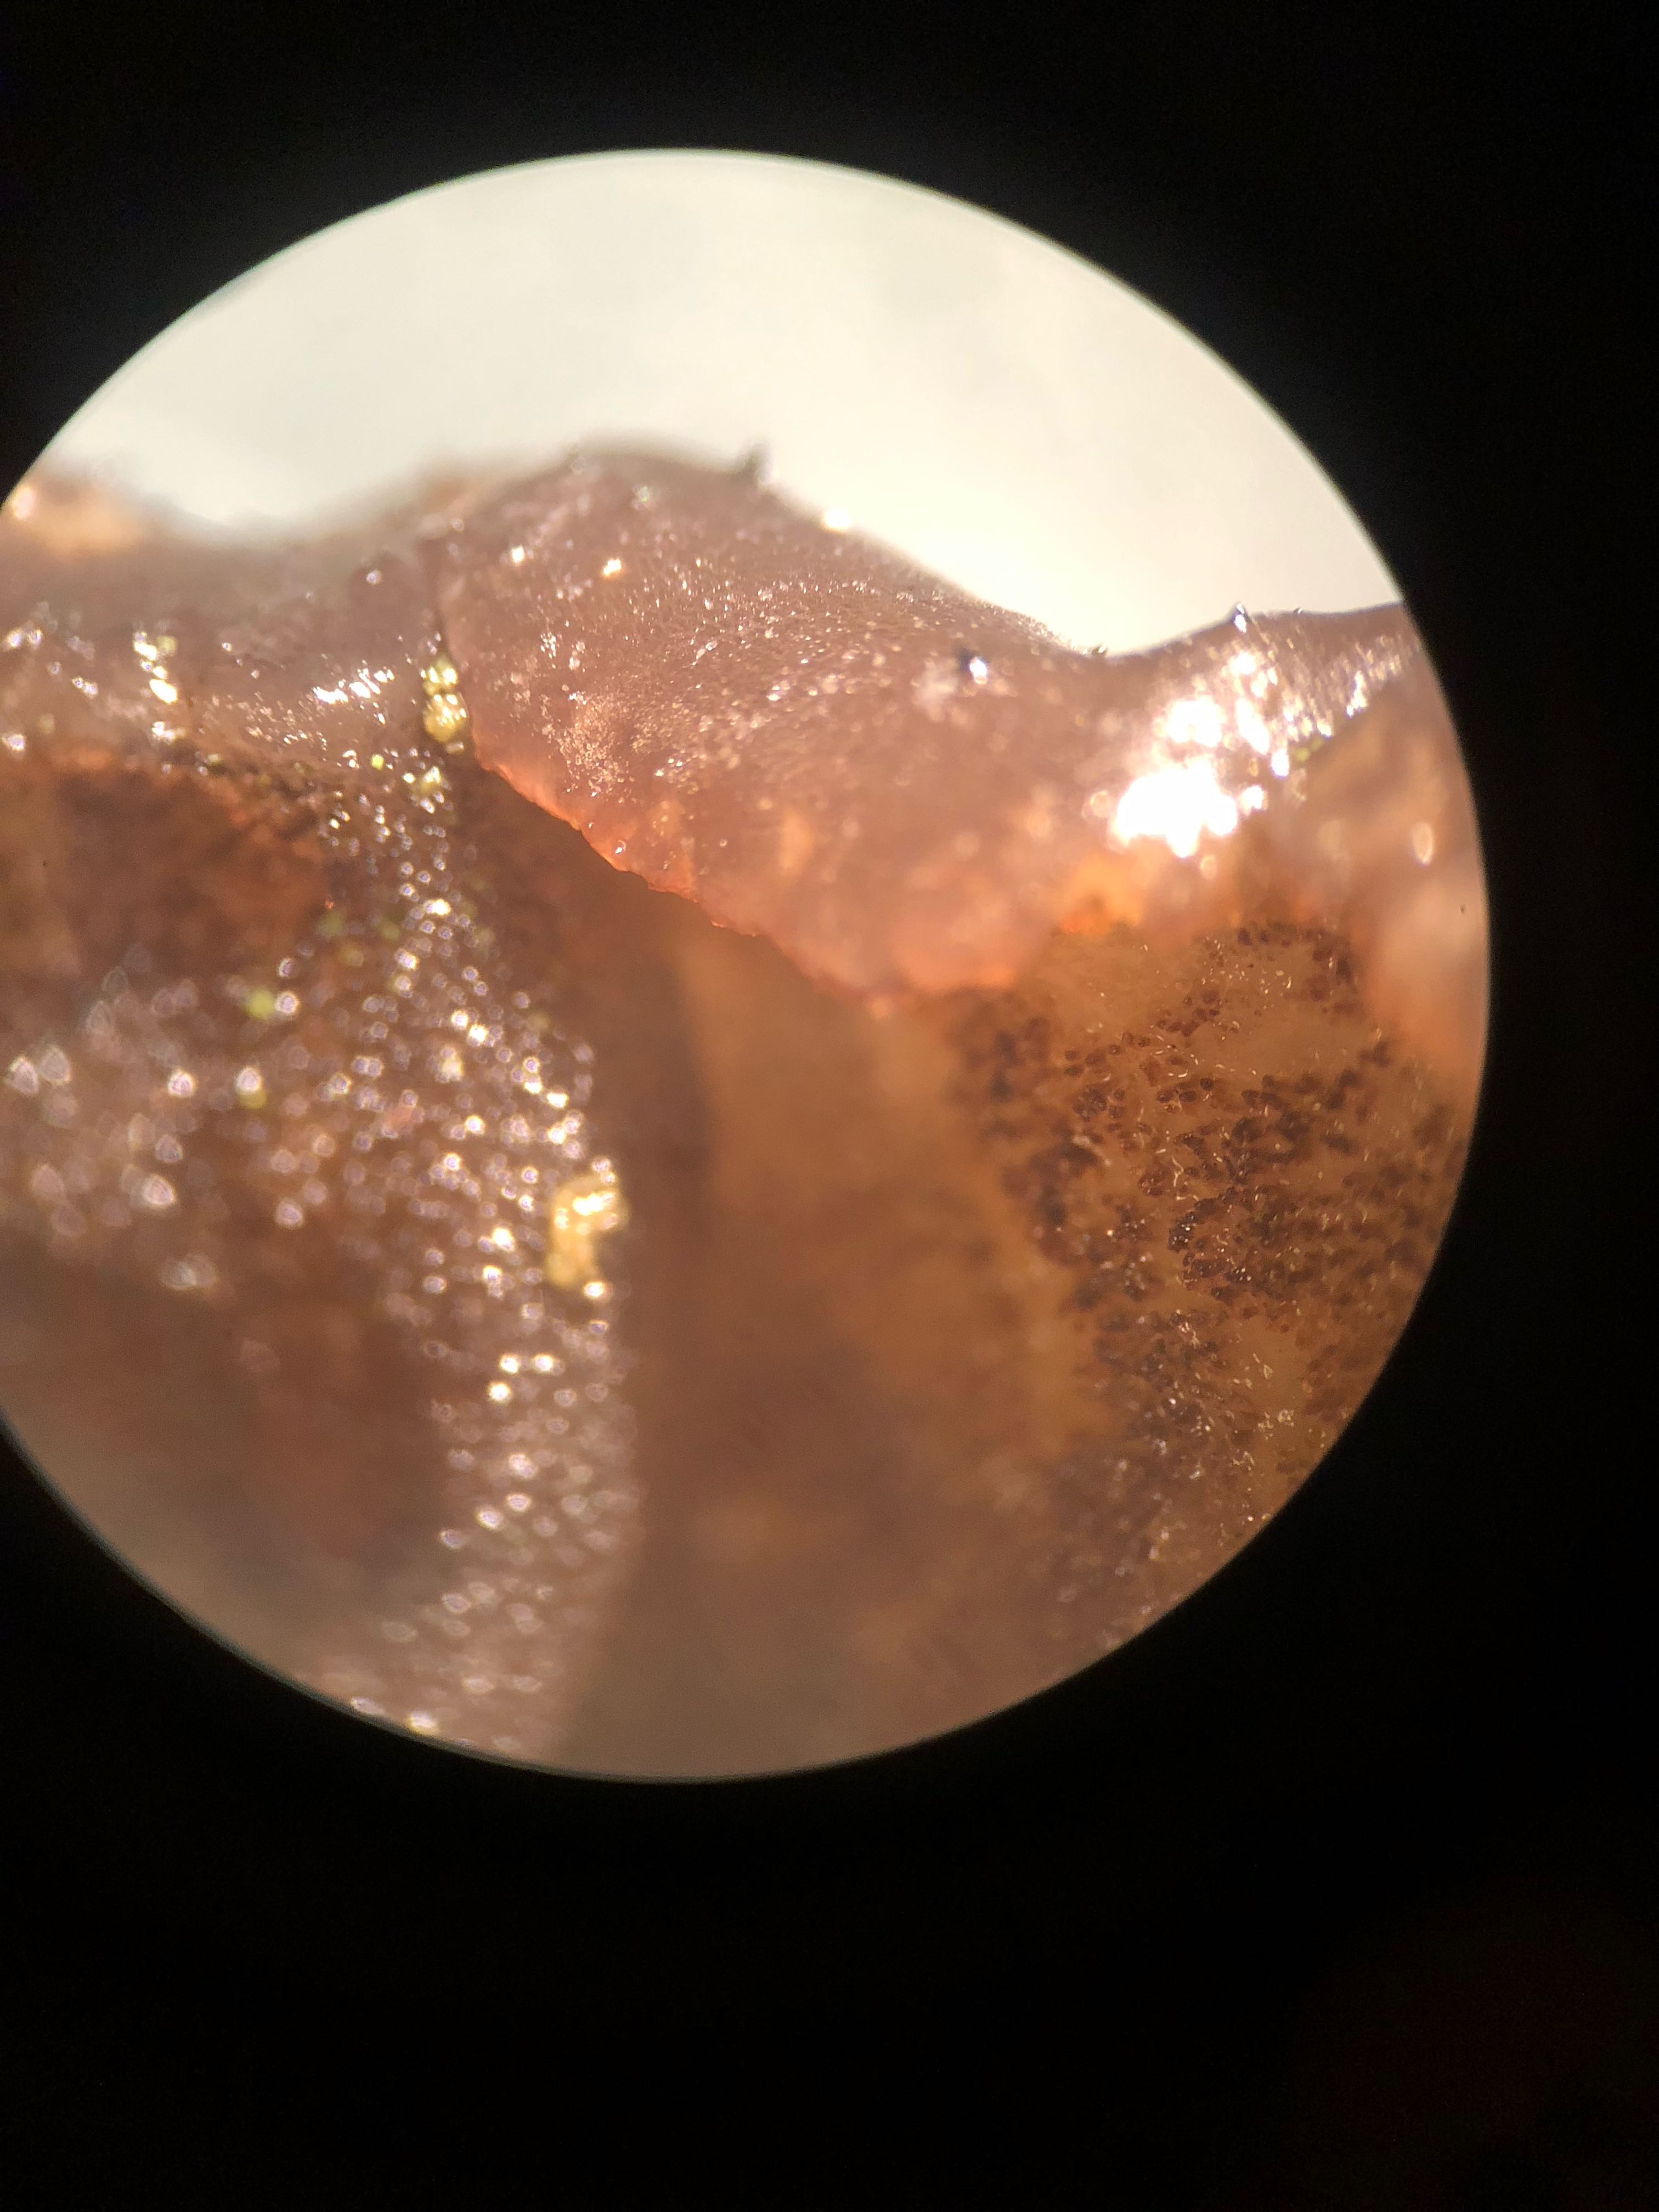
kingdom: Fungi
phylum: Basidiomycota
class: Agaricomycetes
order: Auriculariales
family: Auriculariaceae
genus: Exidia
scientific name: Exidia glandulosa
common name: ege-bævretop
